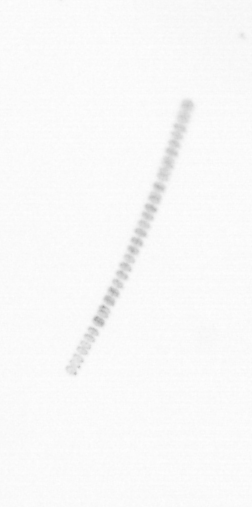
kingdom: Chromista
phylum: Ochrophyta
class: Bacillariophyceae
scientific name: Bacillariophyceae
